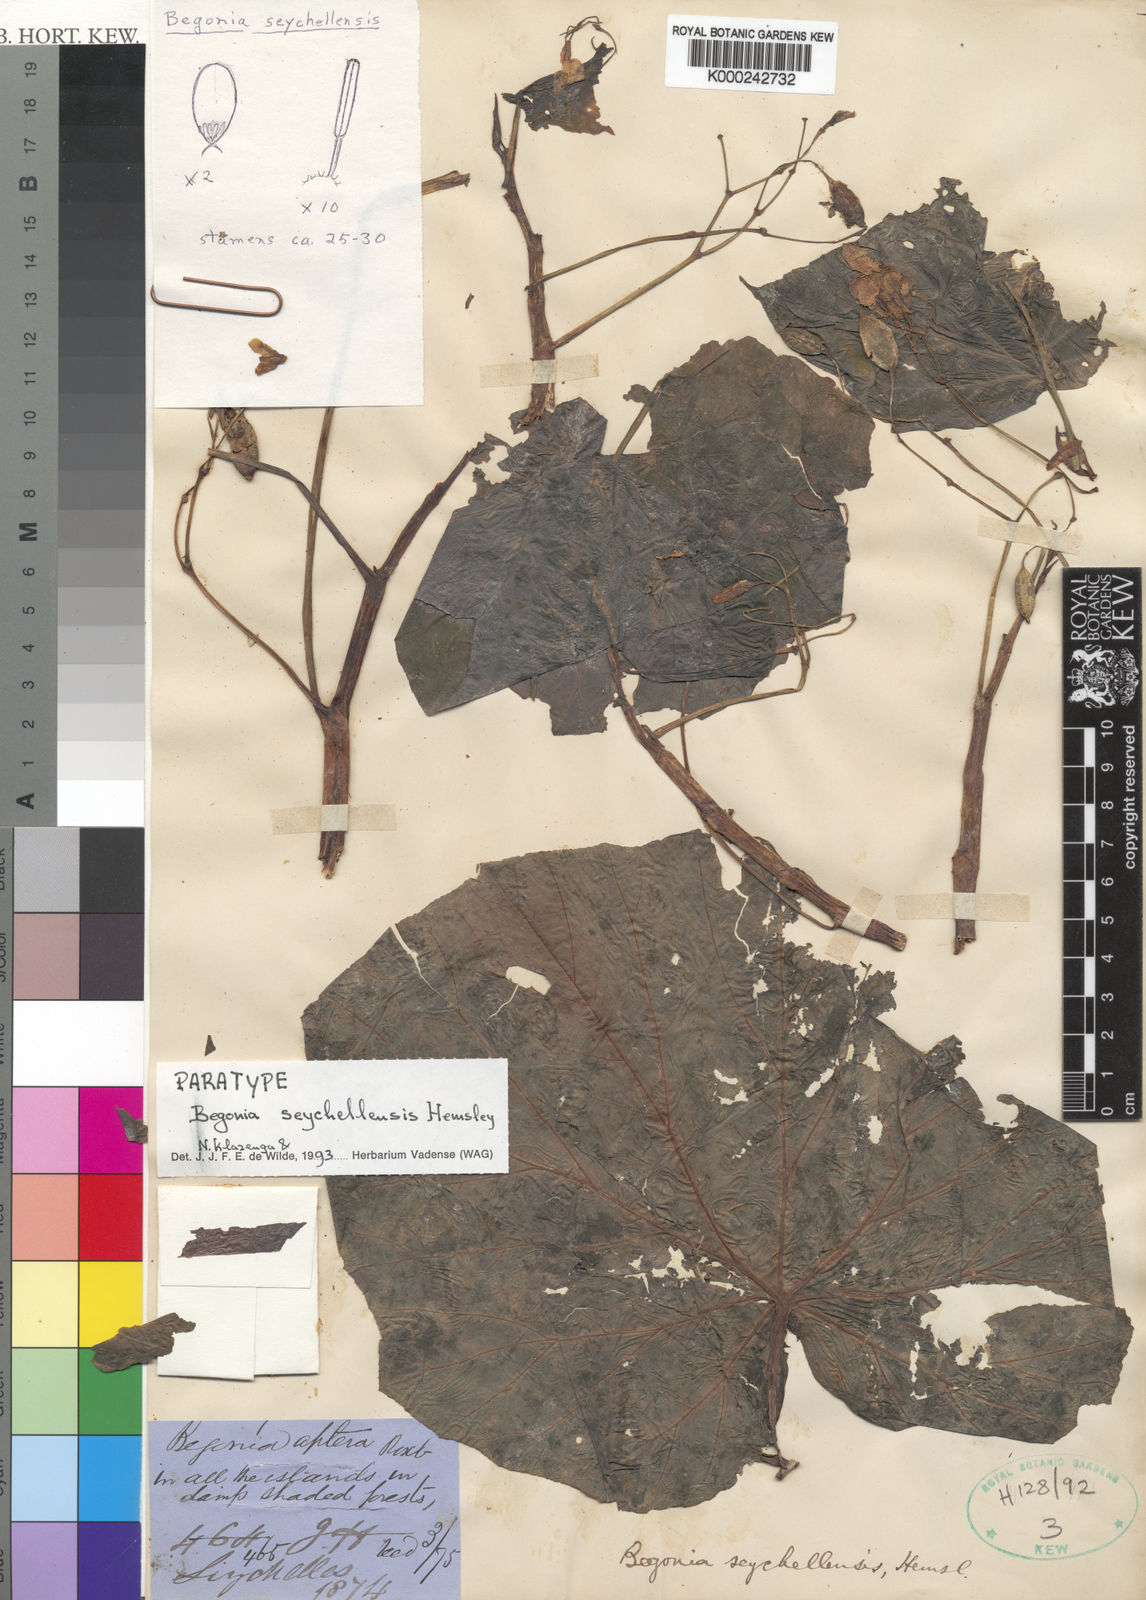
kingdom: Plantae
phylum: Tracheophyta
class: Magnoliopsida
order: Cucurbitales
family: Begoniaceae
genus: Begonia
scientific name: Begonia comorensis
